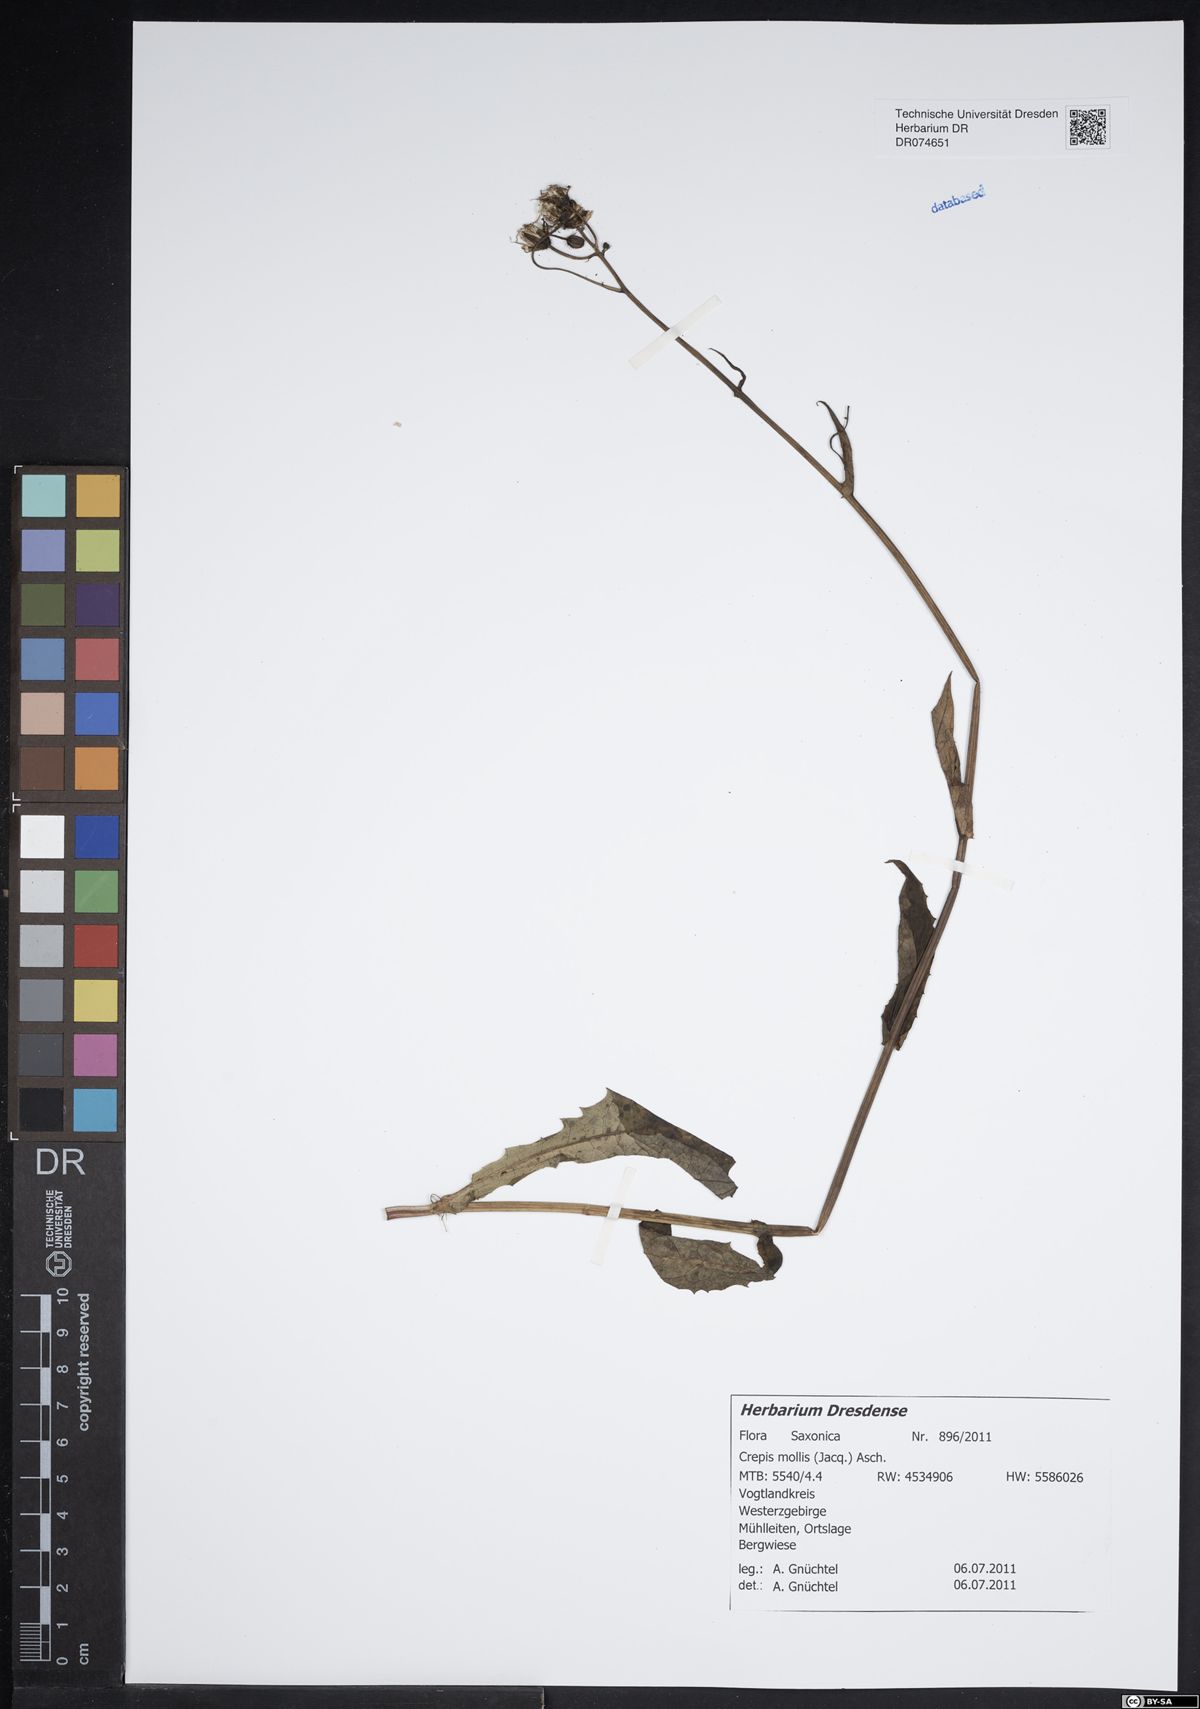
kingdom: Plantae
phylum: Tracheophyta
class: Magnoliopsida
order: Asterales
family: Asteraceae
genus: Crepis
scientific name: Crepis biennis
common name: Rough hawk's-beard
